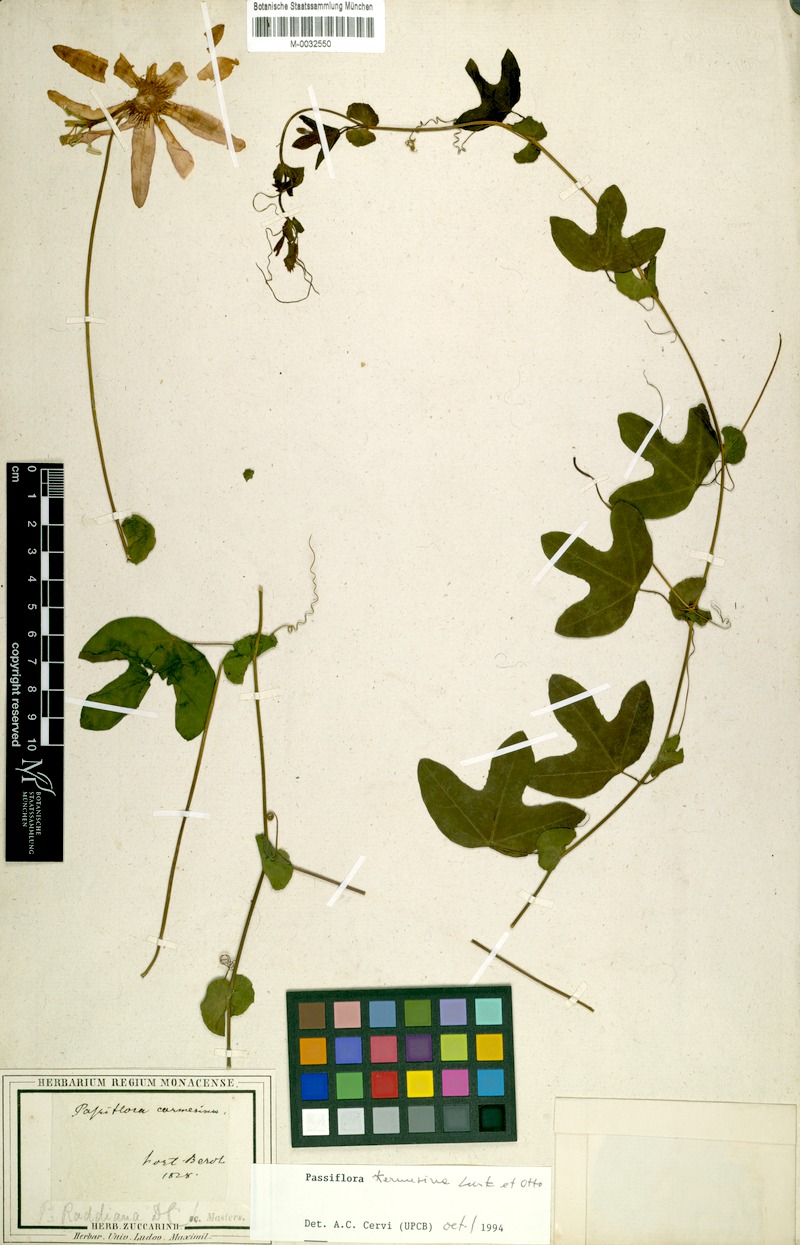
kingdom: Plantae
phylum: Tracheophyta
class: Magnoliopsida
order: Malpighiales
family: Passifloraceae
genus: Passiflora
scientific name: Passiflora kermesina
